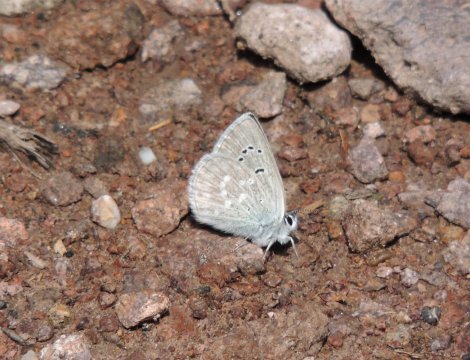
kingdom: Animalia
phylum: Arthropoda
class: Insecta
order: Lepidoptera
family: Lycaenidae
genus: Icaricia
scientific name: Icaricia icarioides
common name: Boisduval's Blue
